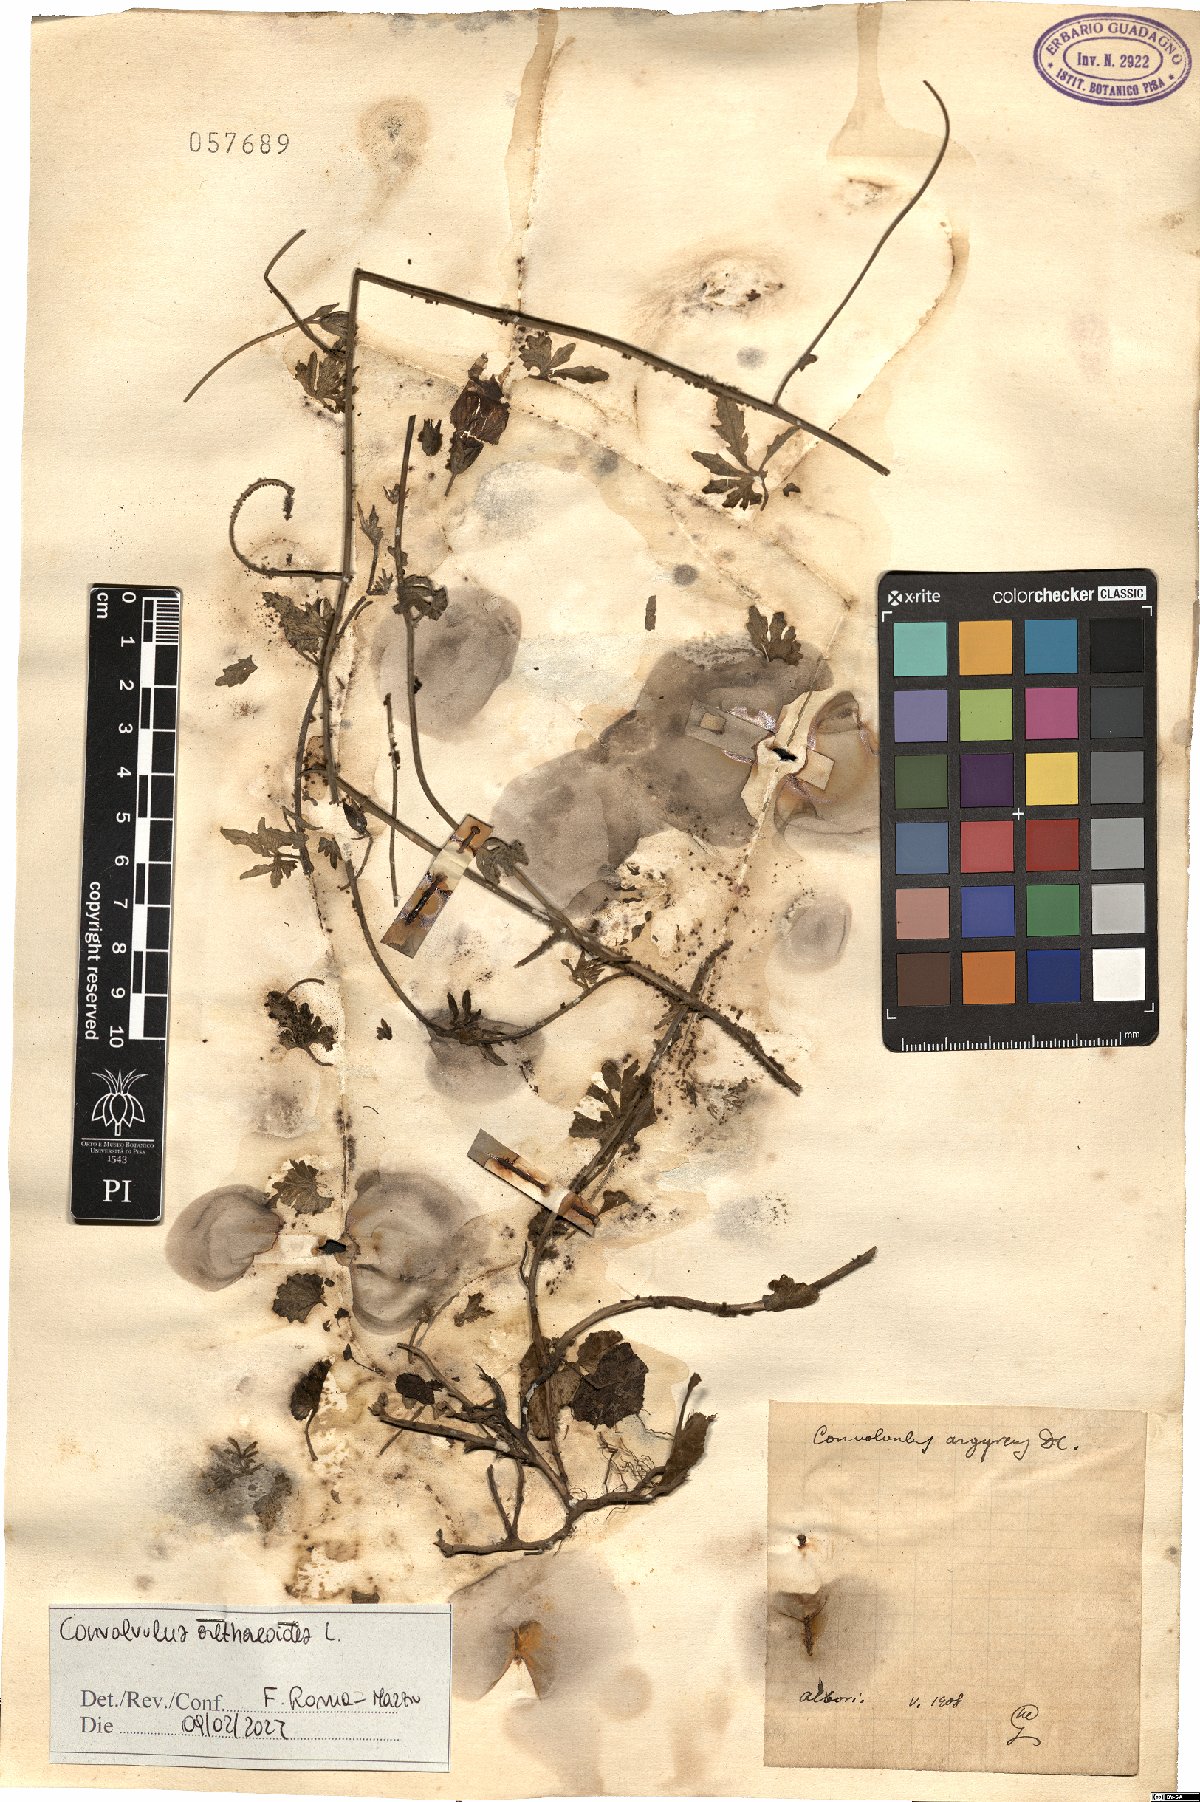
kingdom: Plantae
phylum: Tracheophyta
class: Magnoliopsida
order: Solanales
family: Convolvulaceae
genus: Convolvulus
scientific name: Convolvulus althaeoides
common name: Mallow bindweed
